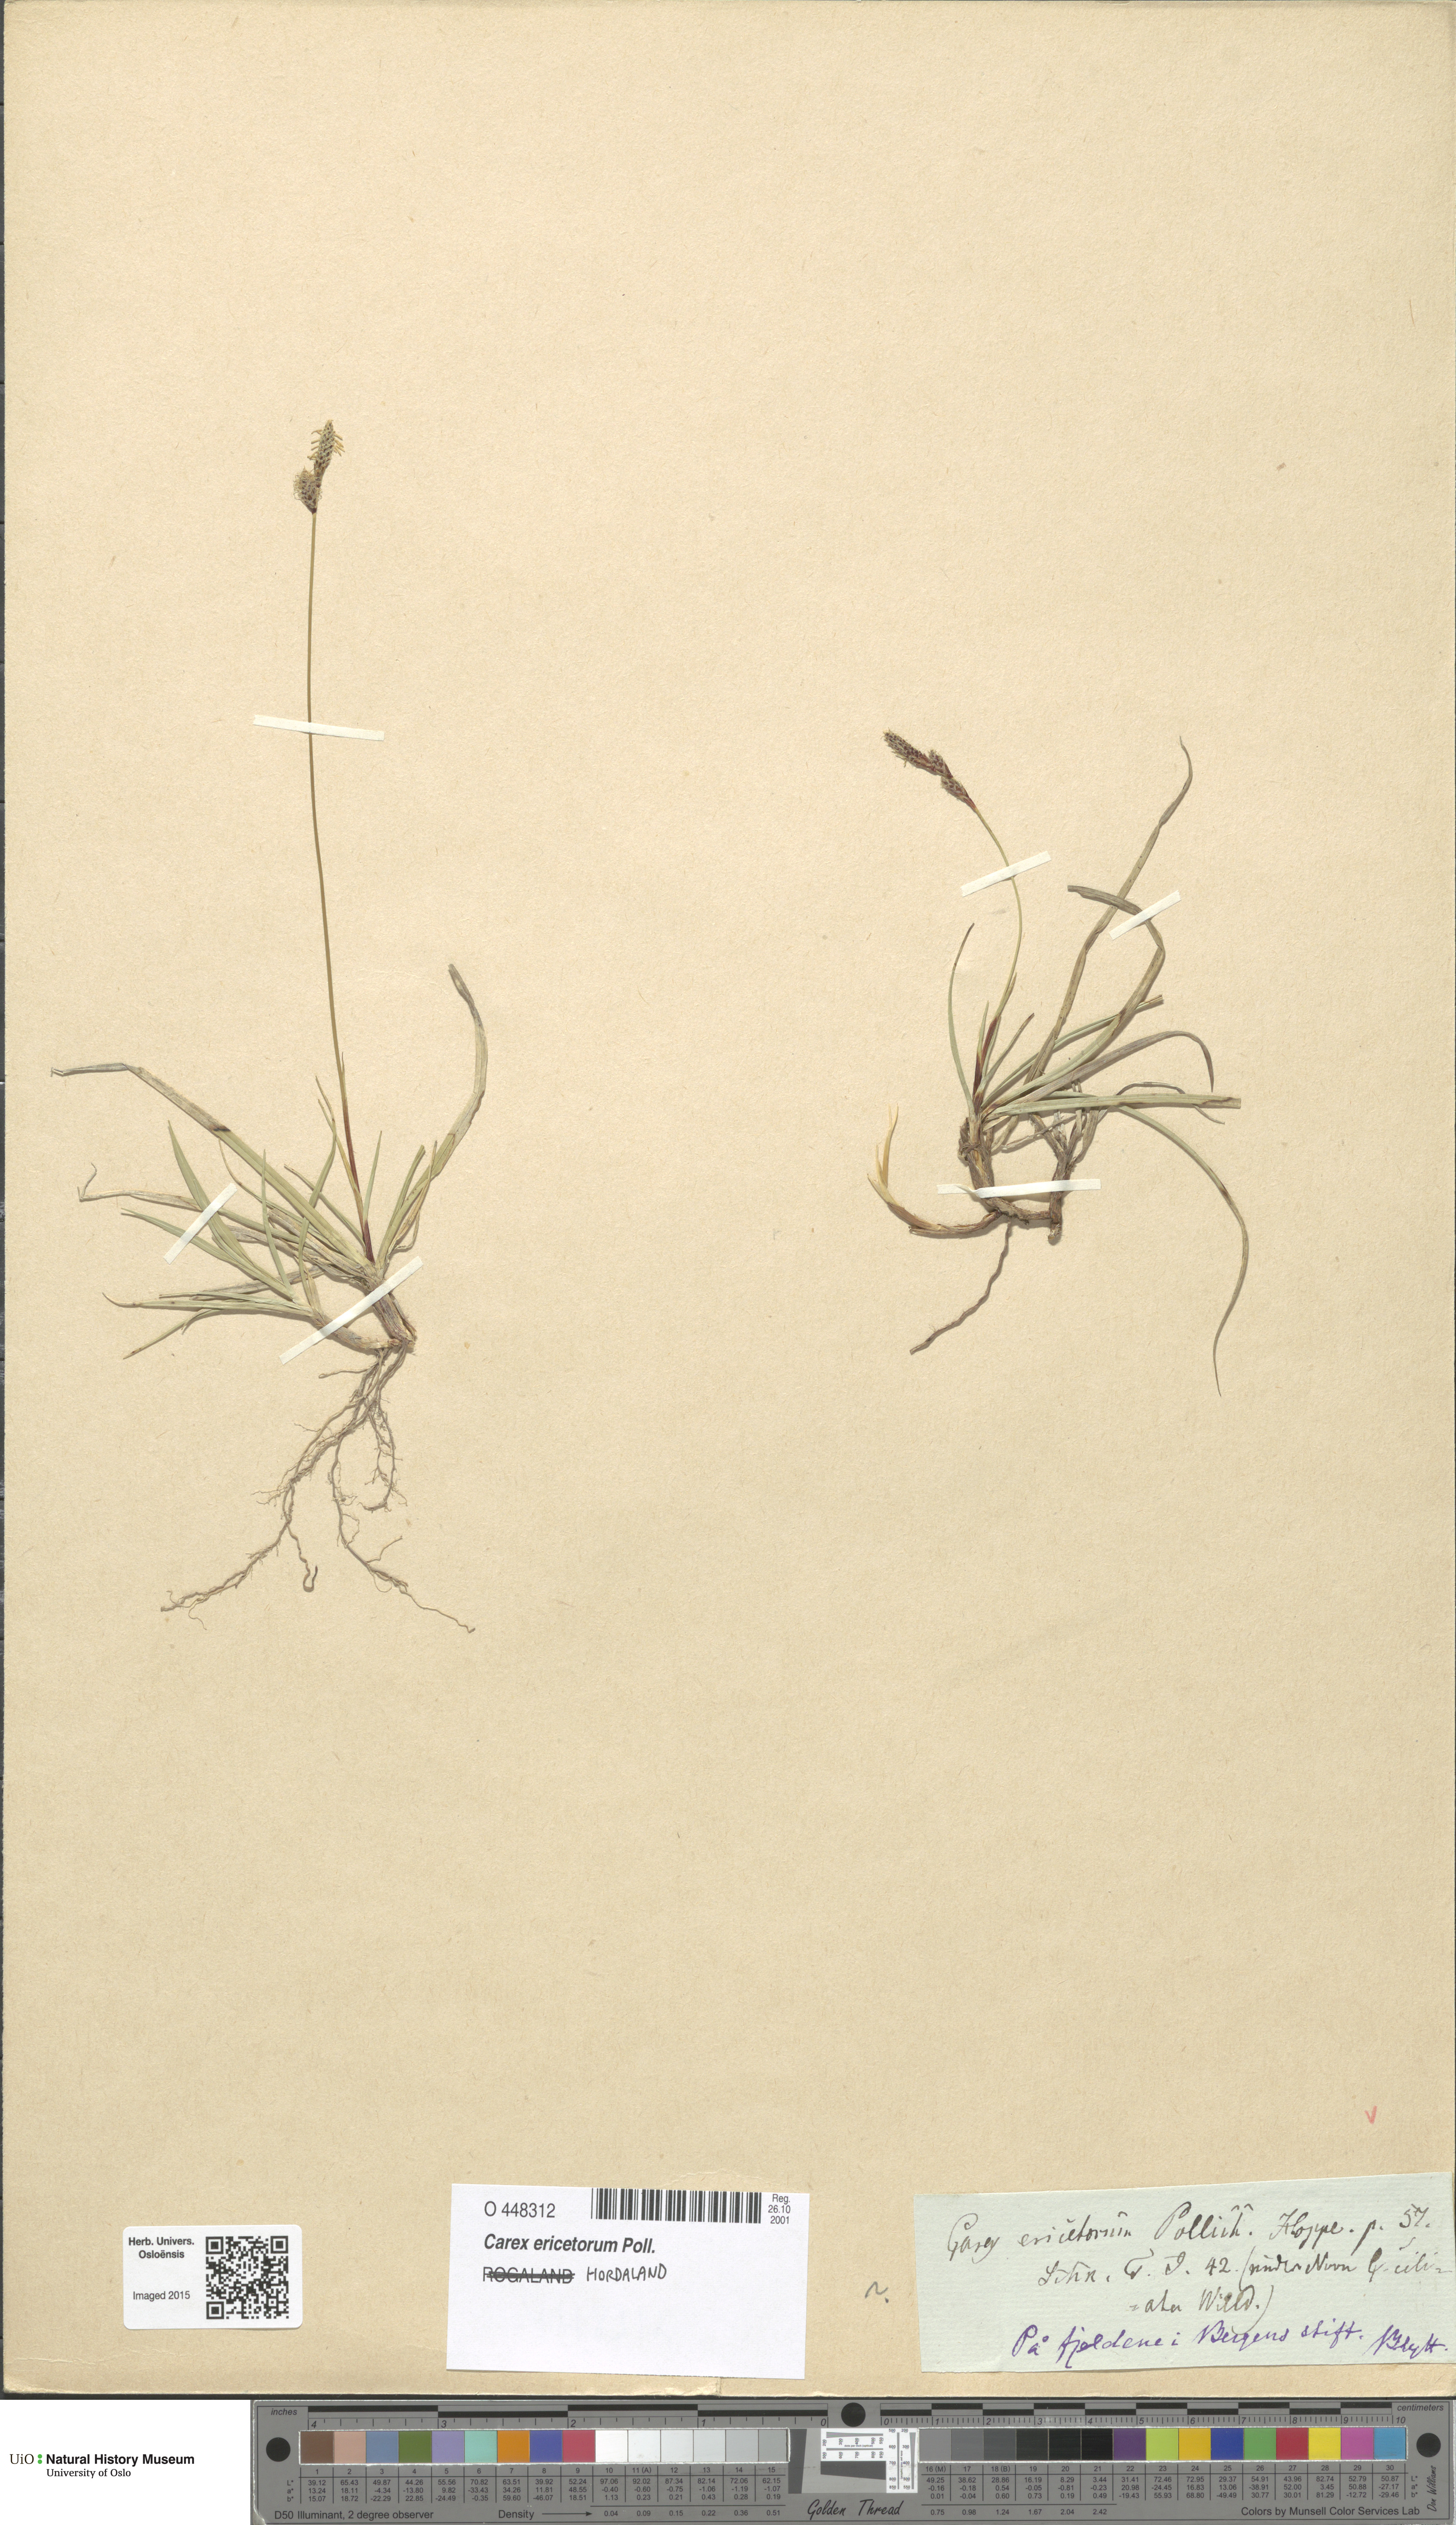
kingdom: Plantae
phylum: Tracheophyta
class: Liliopsida
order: Poales
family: Cyperaceae
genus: Carex
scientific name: Carex ericetorum
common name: Rare spring-sedge
